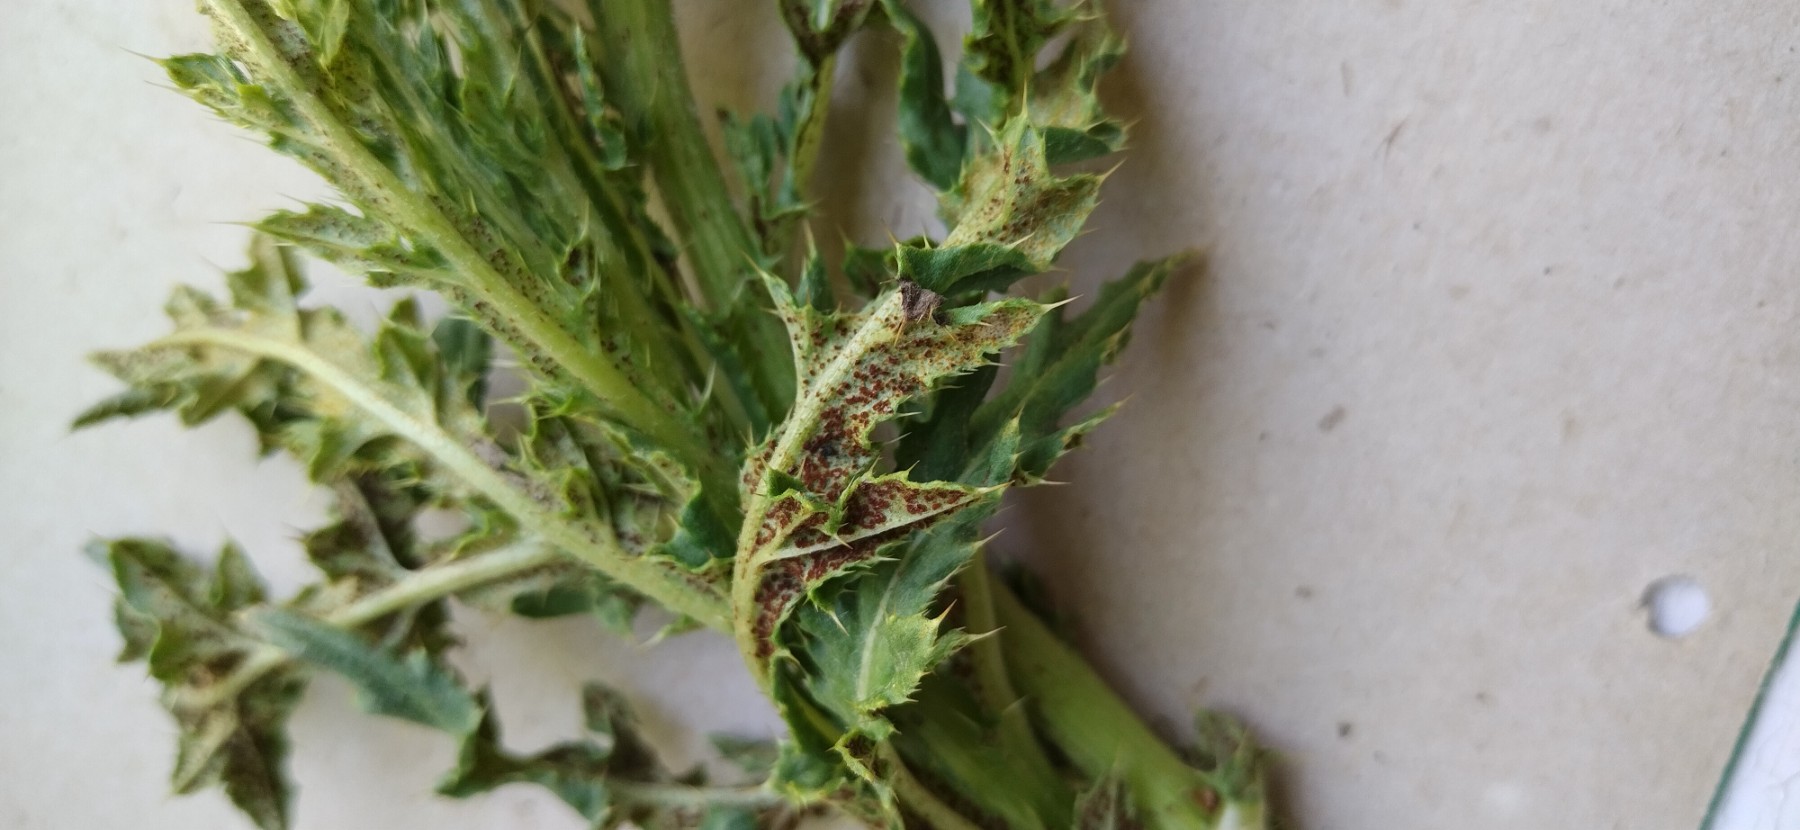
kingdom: Fungi
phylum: Basidiomycota
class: Pucciniomycetes
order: Pucciniales
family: Pucciniaceae
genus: Puccinia
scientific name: Puccinia suaveolens
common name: tidsel-tvecellerust
